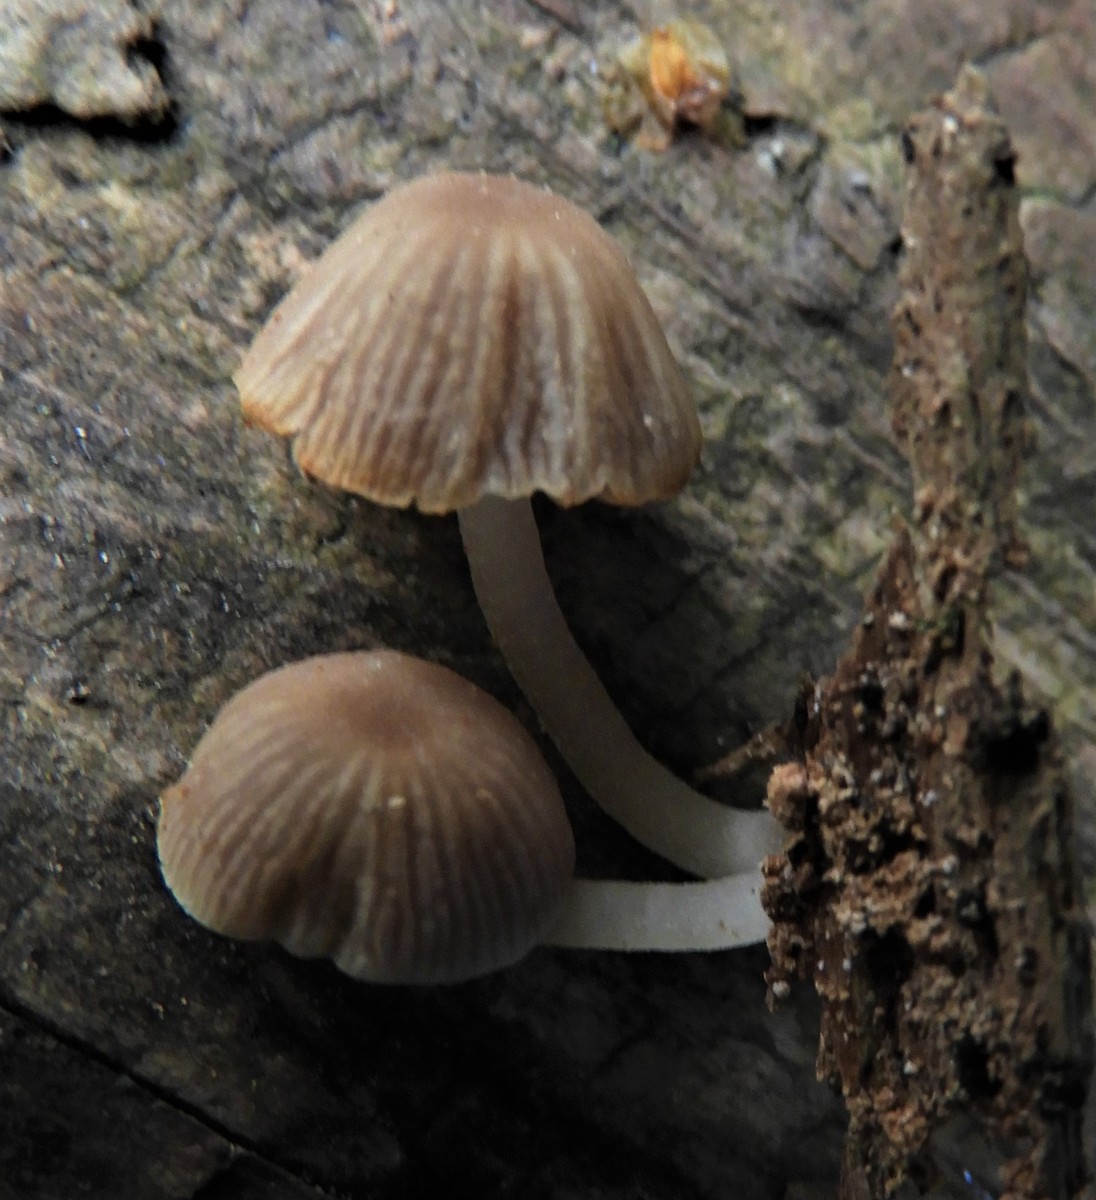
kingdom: Fungi
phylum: Basidiomycota
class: Agaricomycetes
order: Agaricales
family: Psathyrellaceae
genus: Psathyrella
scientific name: Psathyrella pygmaea
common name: dværg-mørkhat
